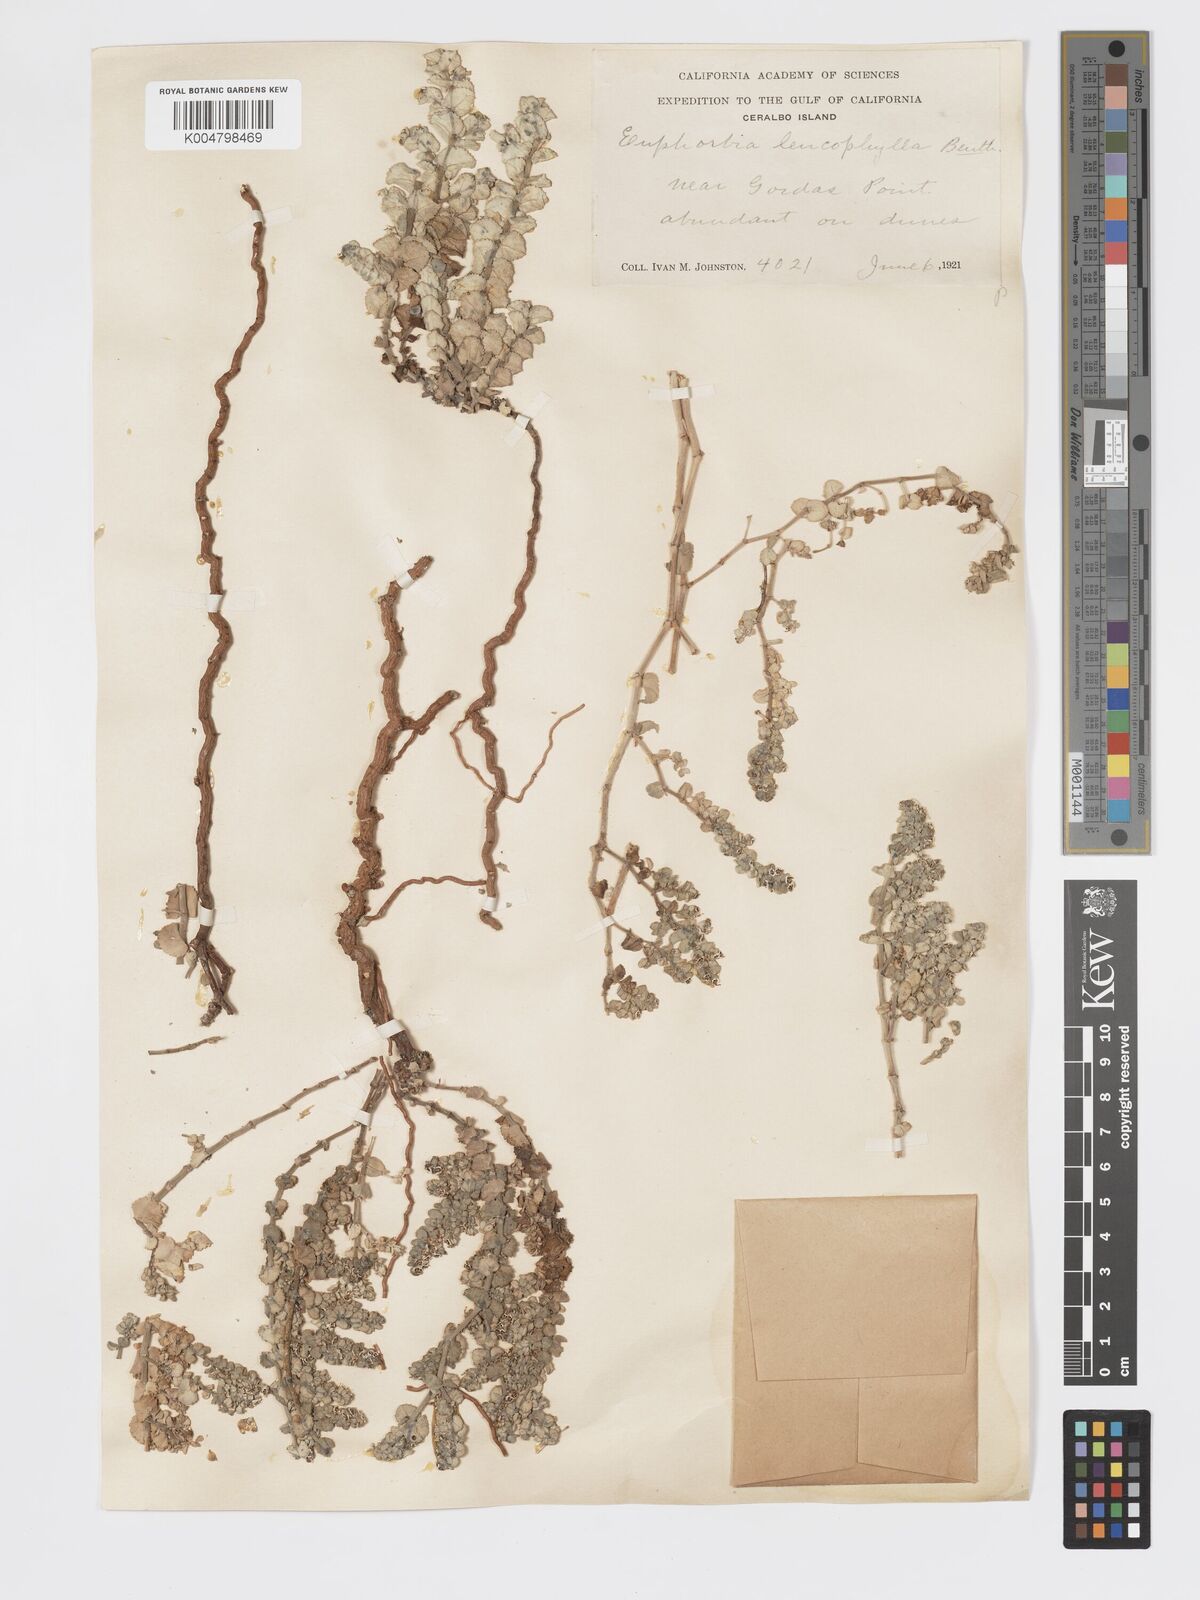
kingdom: Plantae
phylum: Tracheophyta
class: Magnoliopsida
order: Malpighiales
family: Euphorbiaceae
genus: Euphorbia
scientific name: Euphorbia leucophylla
